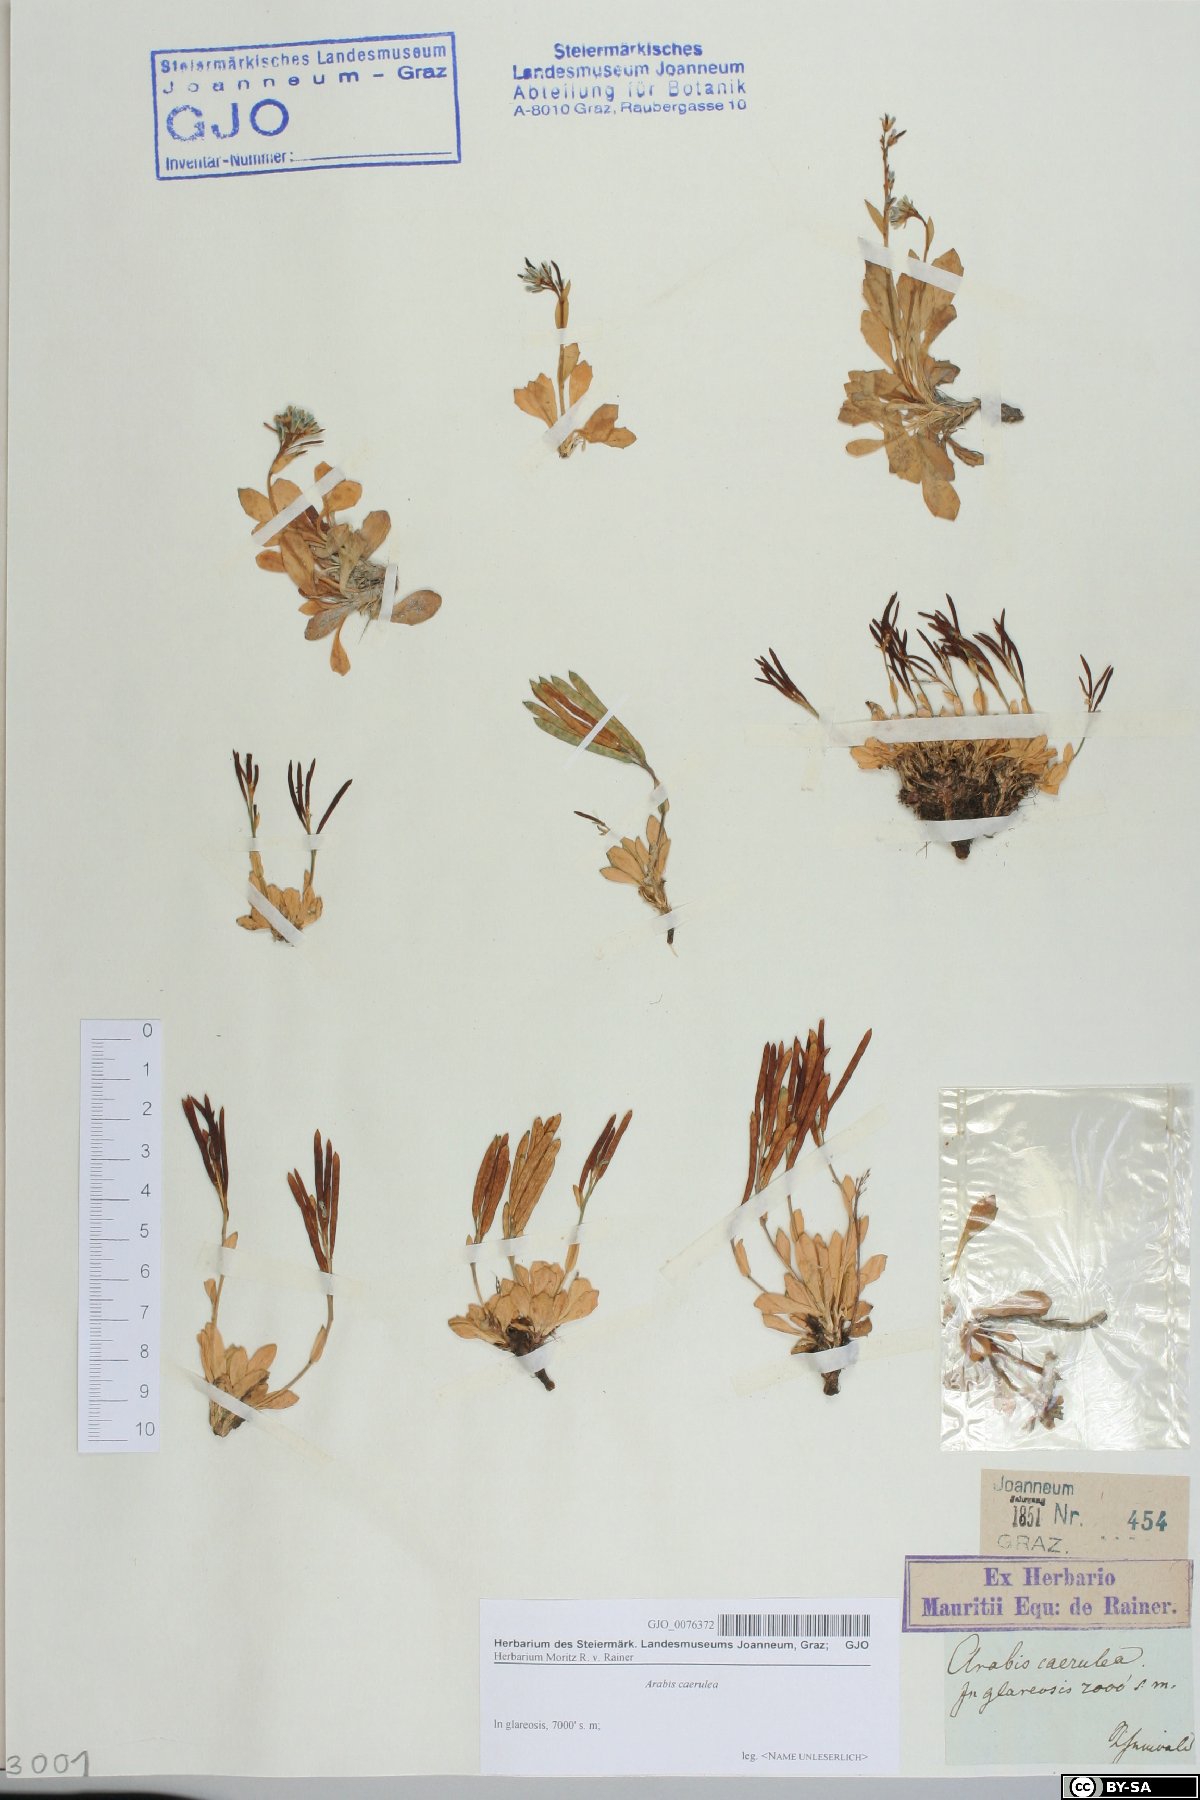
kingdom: Plantae
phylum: Tracheophyta
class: Magnoliopsida
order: Brassicales
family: Brassicaceae
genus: Arabis
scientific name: Arabis caerulea
